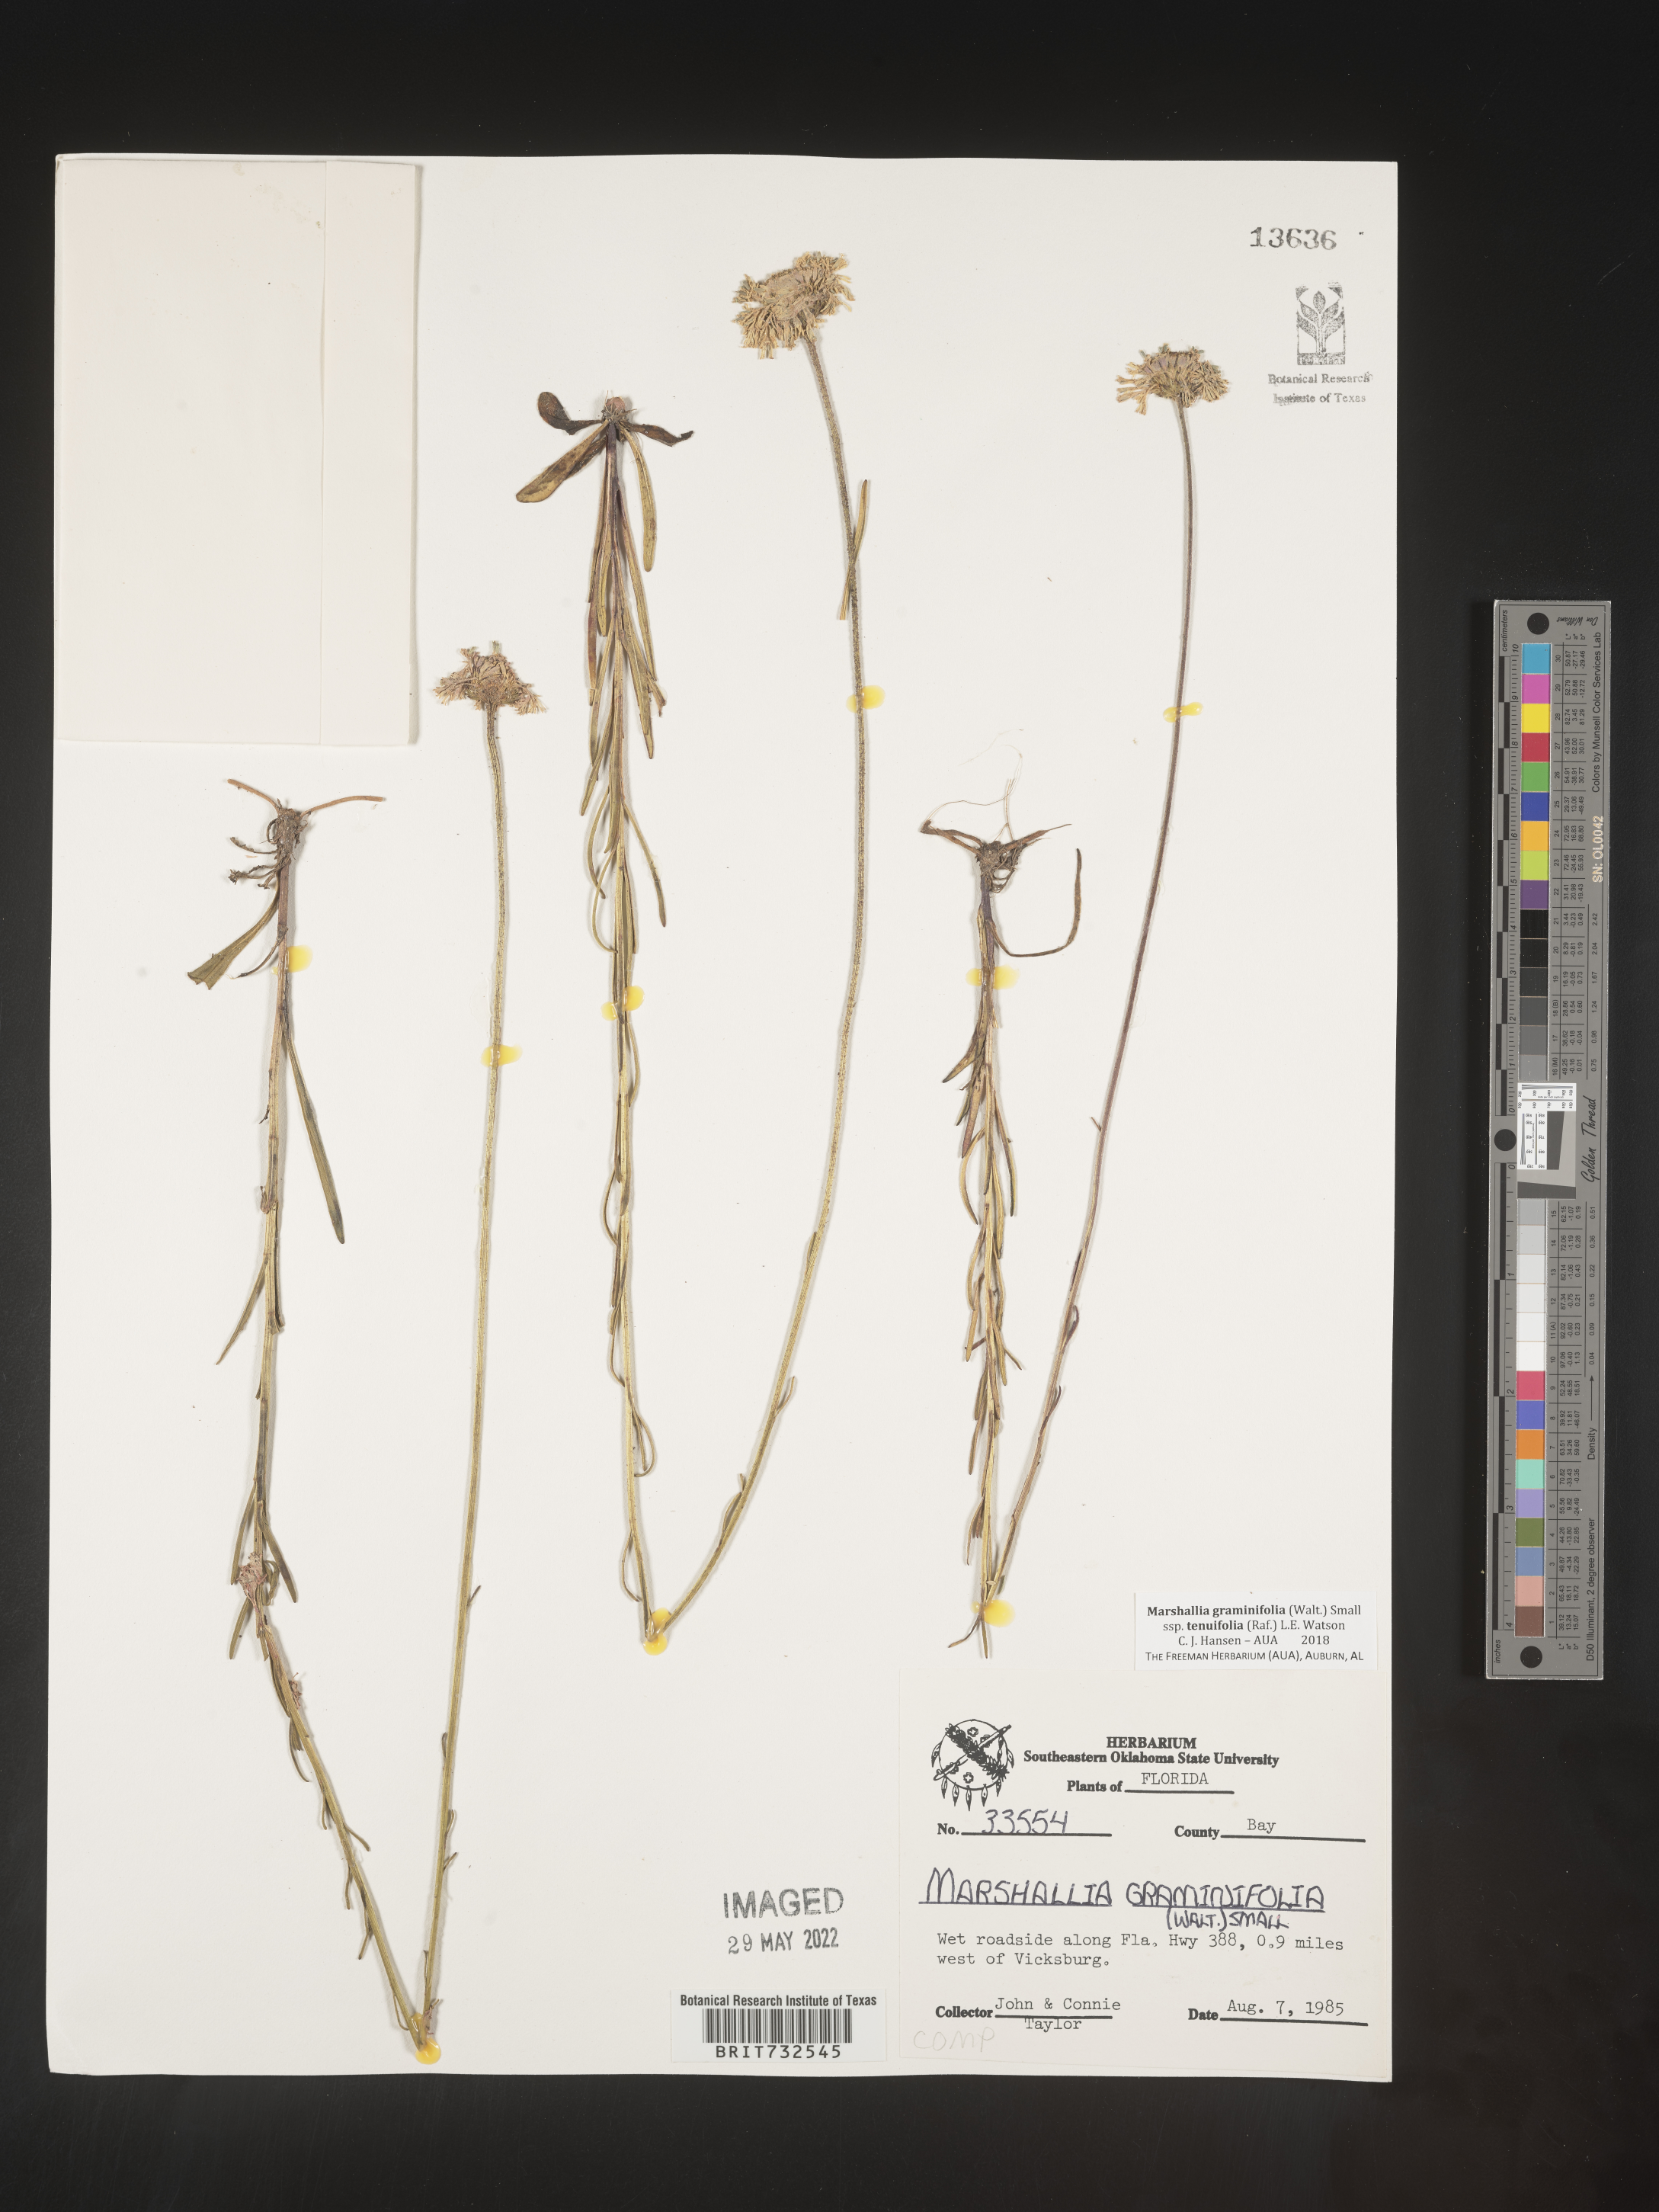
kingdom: Plantae
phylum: Tracheophyta
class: Magnoliopsida
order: Asterales
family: Asteraceae
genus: Marshallia
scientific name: Marshallia graminifolia
